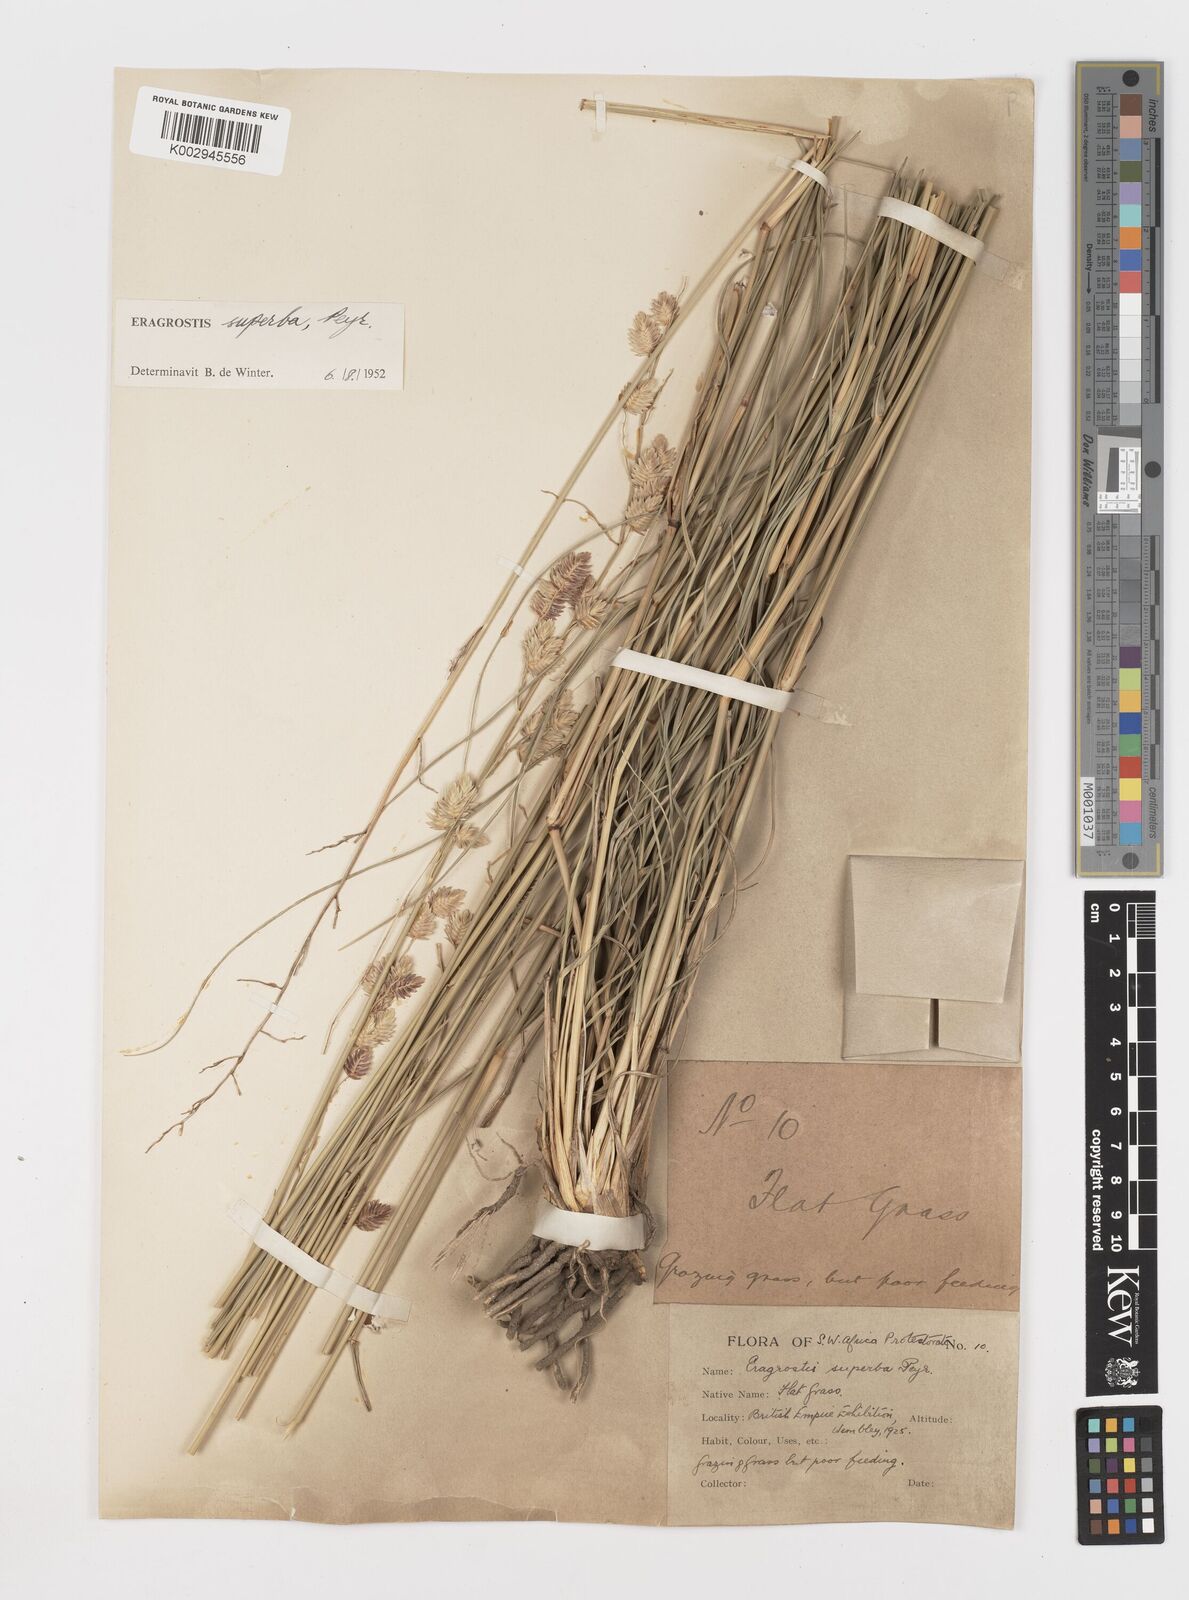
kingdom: Plantae
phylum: Tracheophyta
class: Liliopsida
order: Poales
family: Poaceae
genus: Eragrostis
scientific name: Eragrostis superba
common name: Wilman lovegrass
